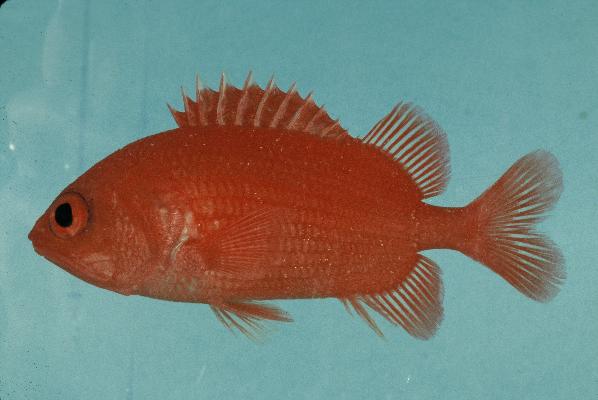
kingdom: Animalia
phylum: Chordata
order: Beryciformes
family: Holocentridae
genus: Plectrypops
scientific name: Plectrypops lima
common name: Cardinal soldierfish
